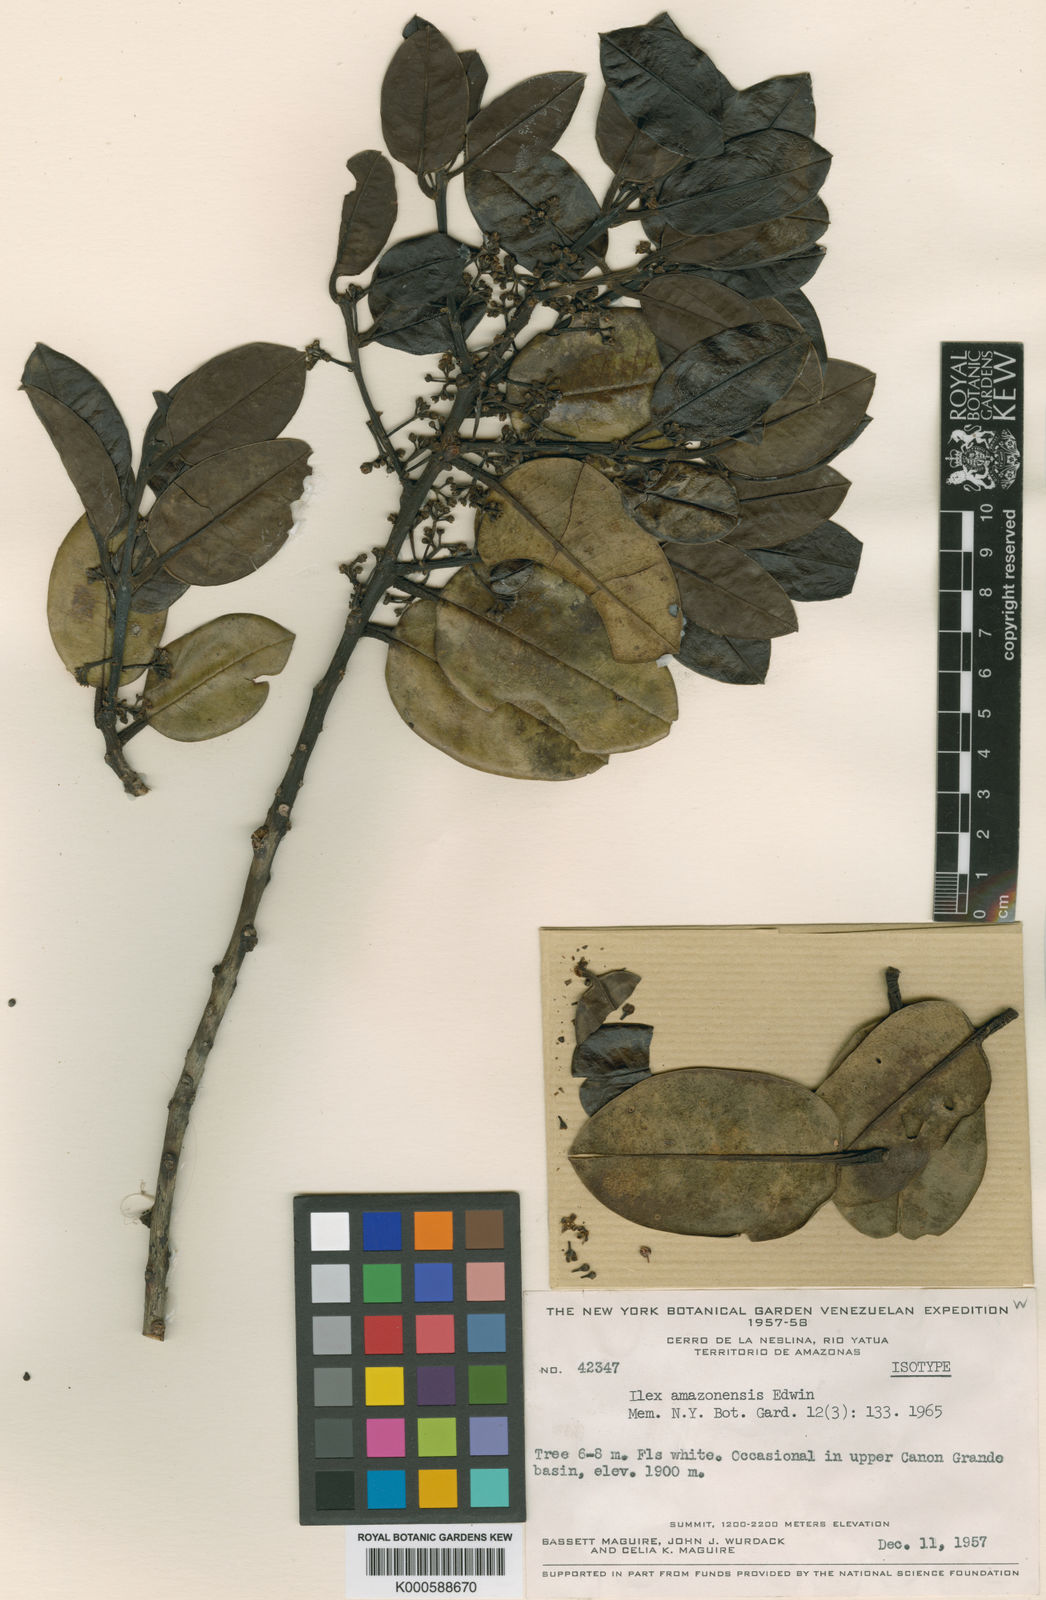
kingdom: Plantae
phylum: Tracheophyta
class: Magnoliopsida
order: Aquifoliales
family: Aquifoliaceae
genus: Ilex
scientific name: Ilex amazonensis
